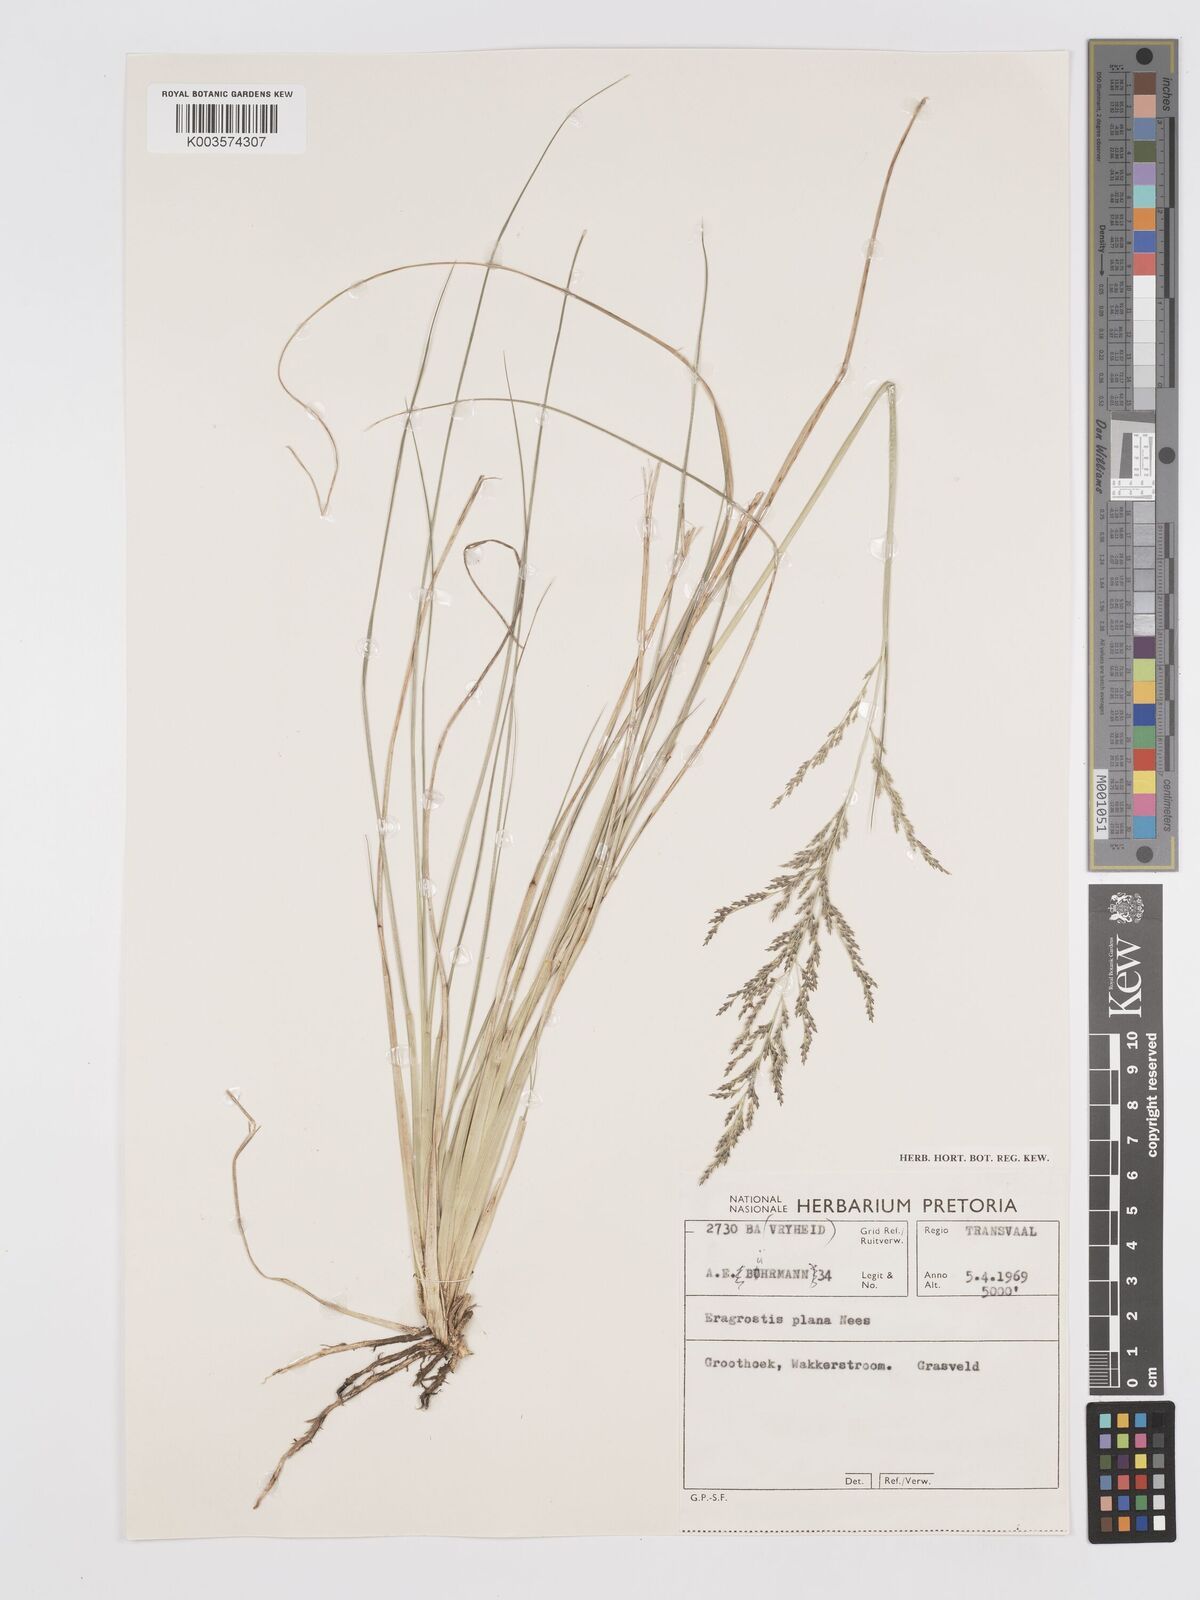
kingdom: Plantae
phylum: Tracheophyta
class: Liliopsida
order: Poales
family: Poaceae
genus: Eragrostis
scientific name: Eragrostis plana
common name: South african lovegrass
